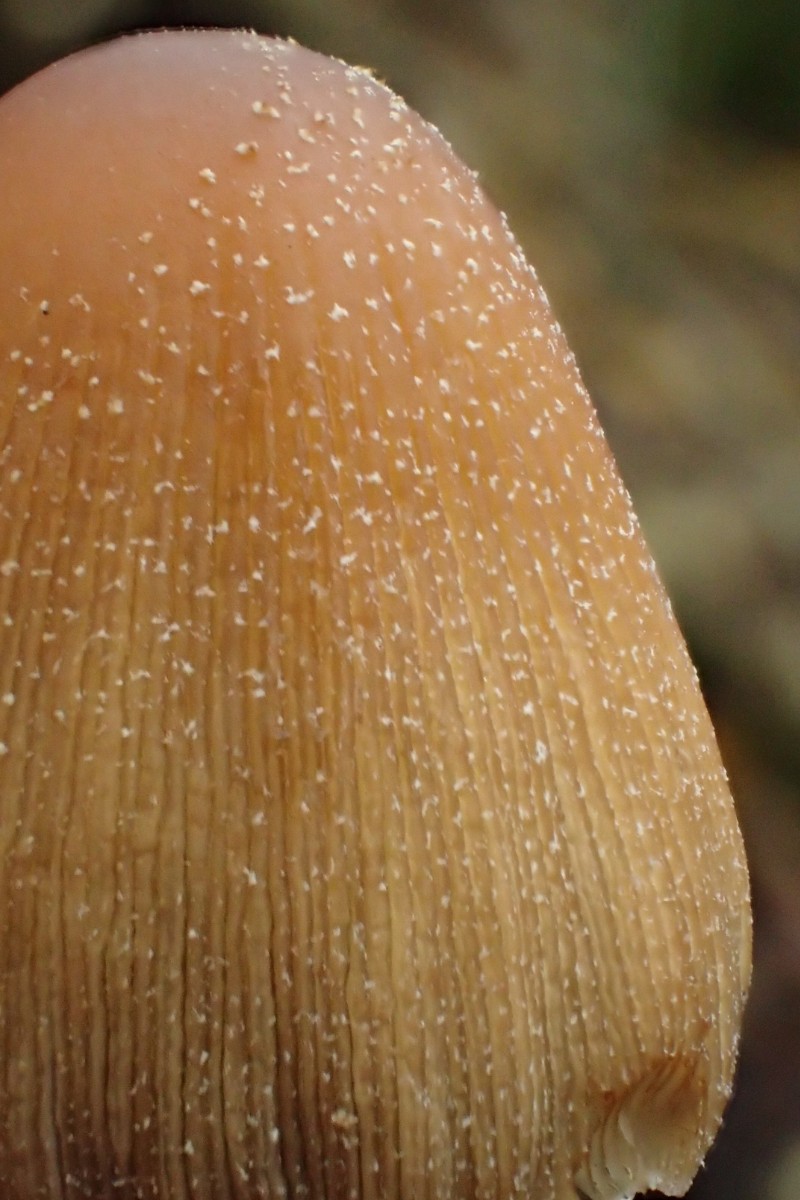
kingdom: Fungi
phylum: Basidiomycota
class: Agaricomycetes
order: Agaricales
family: Psathyrellaceae
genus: Coprinellus
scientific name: Coprinellus micaceus
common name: glimmer-blækhat
